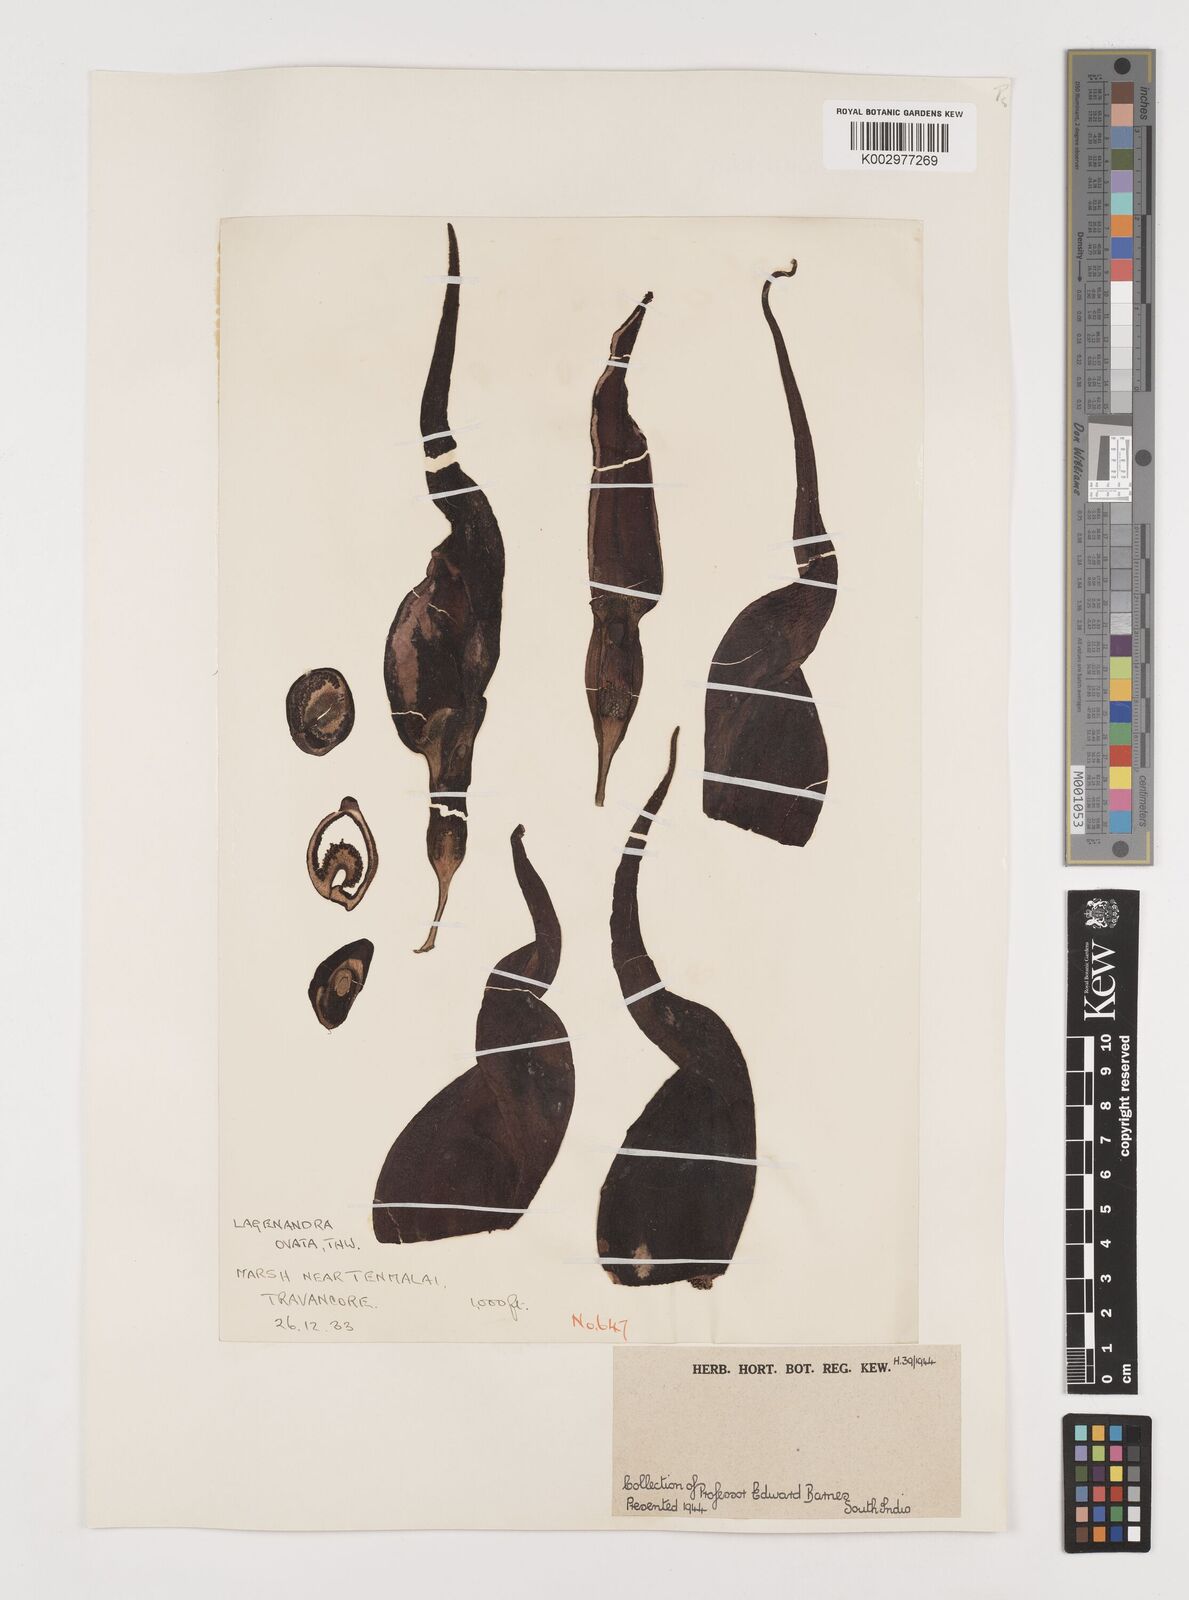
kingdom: Plantae
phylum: Tracheophyta
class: Liliopsida
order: Alismatales
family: Araceae
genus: Lagenandra
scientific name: Lagenandra ovata
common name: Malayan sword
